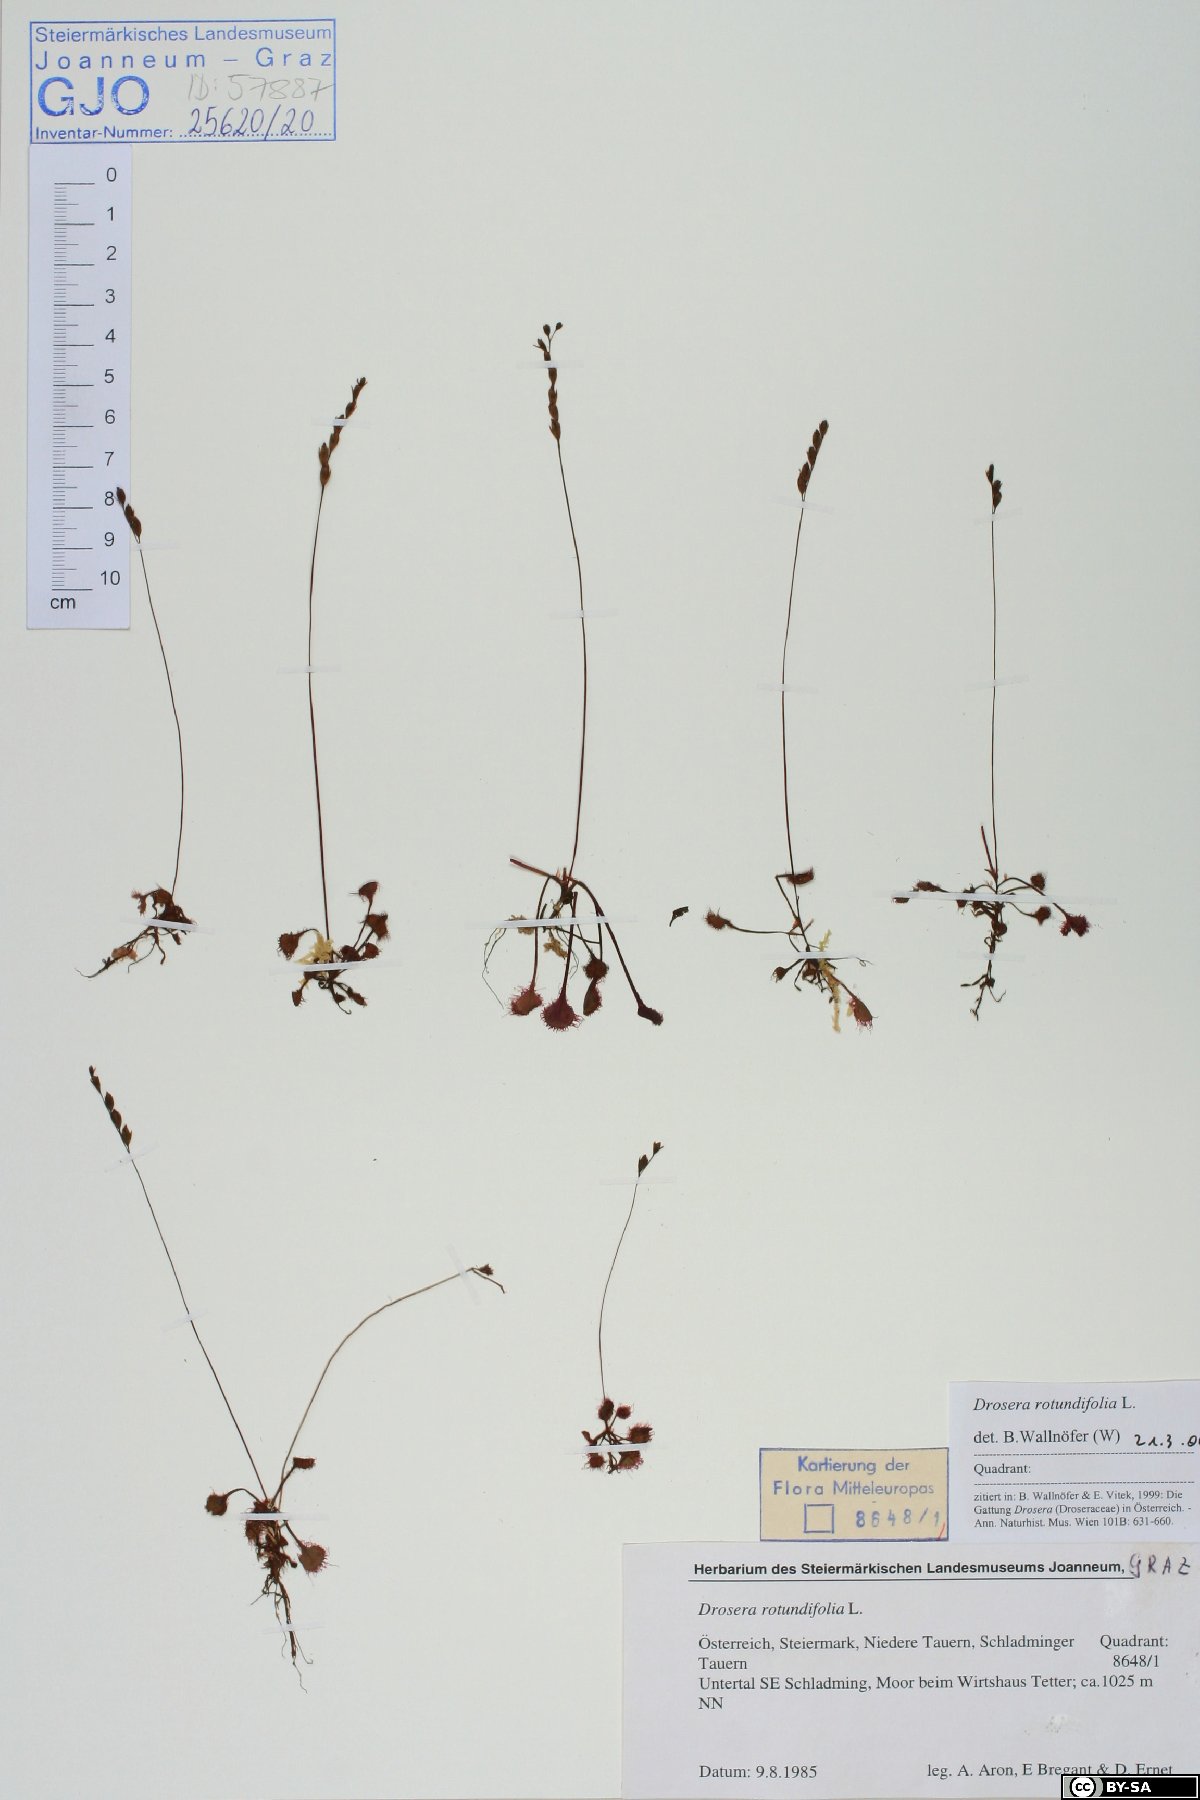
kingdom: Plantae
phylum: Tracheophyta
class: Magnoliopsida
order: Caryophyllales
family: Droseraceae
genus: Drosera
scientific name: Drosera rotundifolia
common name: Round-leaved sundew
